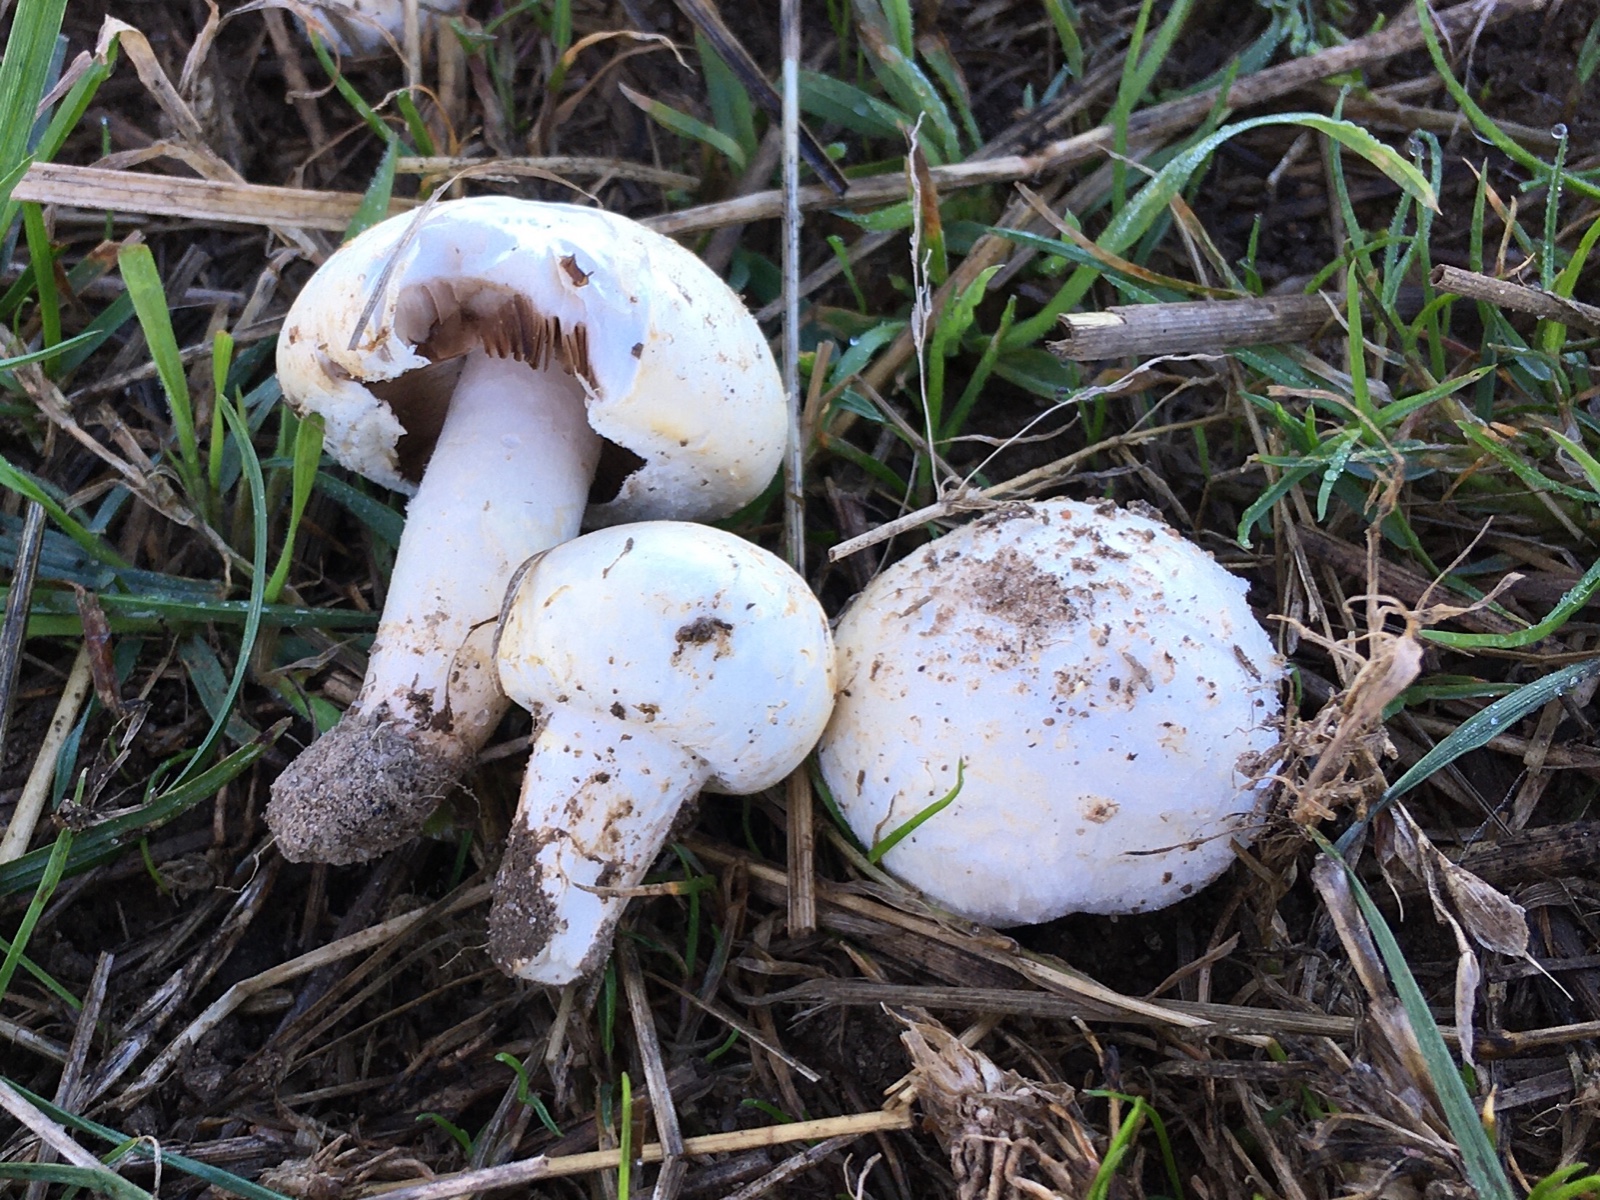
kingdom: Fungi
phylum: Basidiomycota
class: Agaricomycetes
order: Agaricales
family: Agaricaceae
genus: Agaricus
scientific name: Agaricus campestris
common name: mark-champignon
